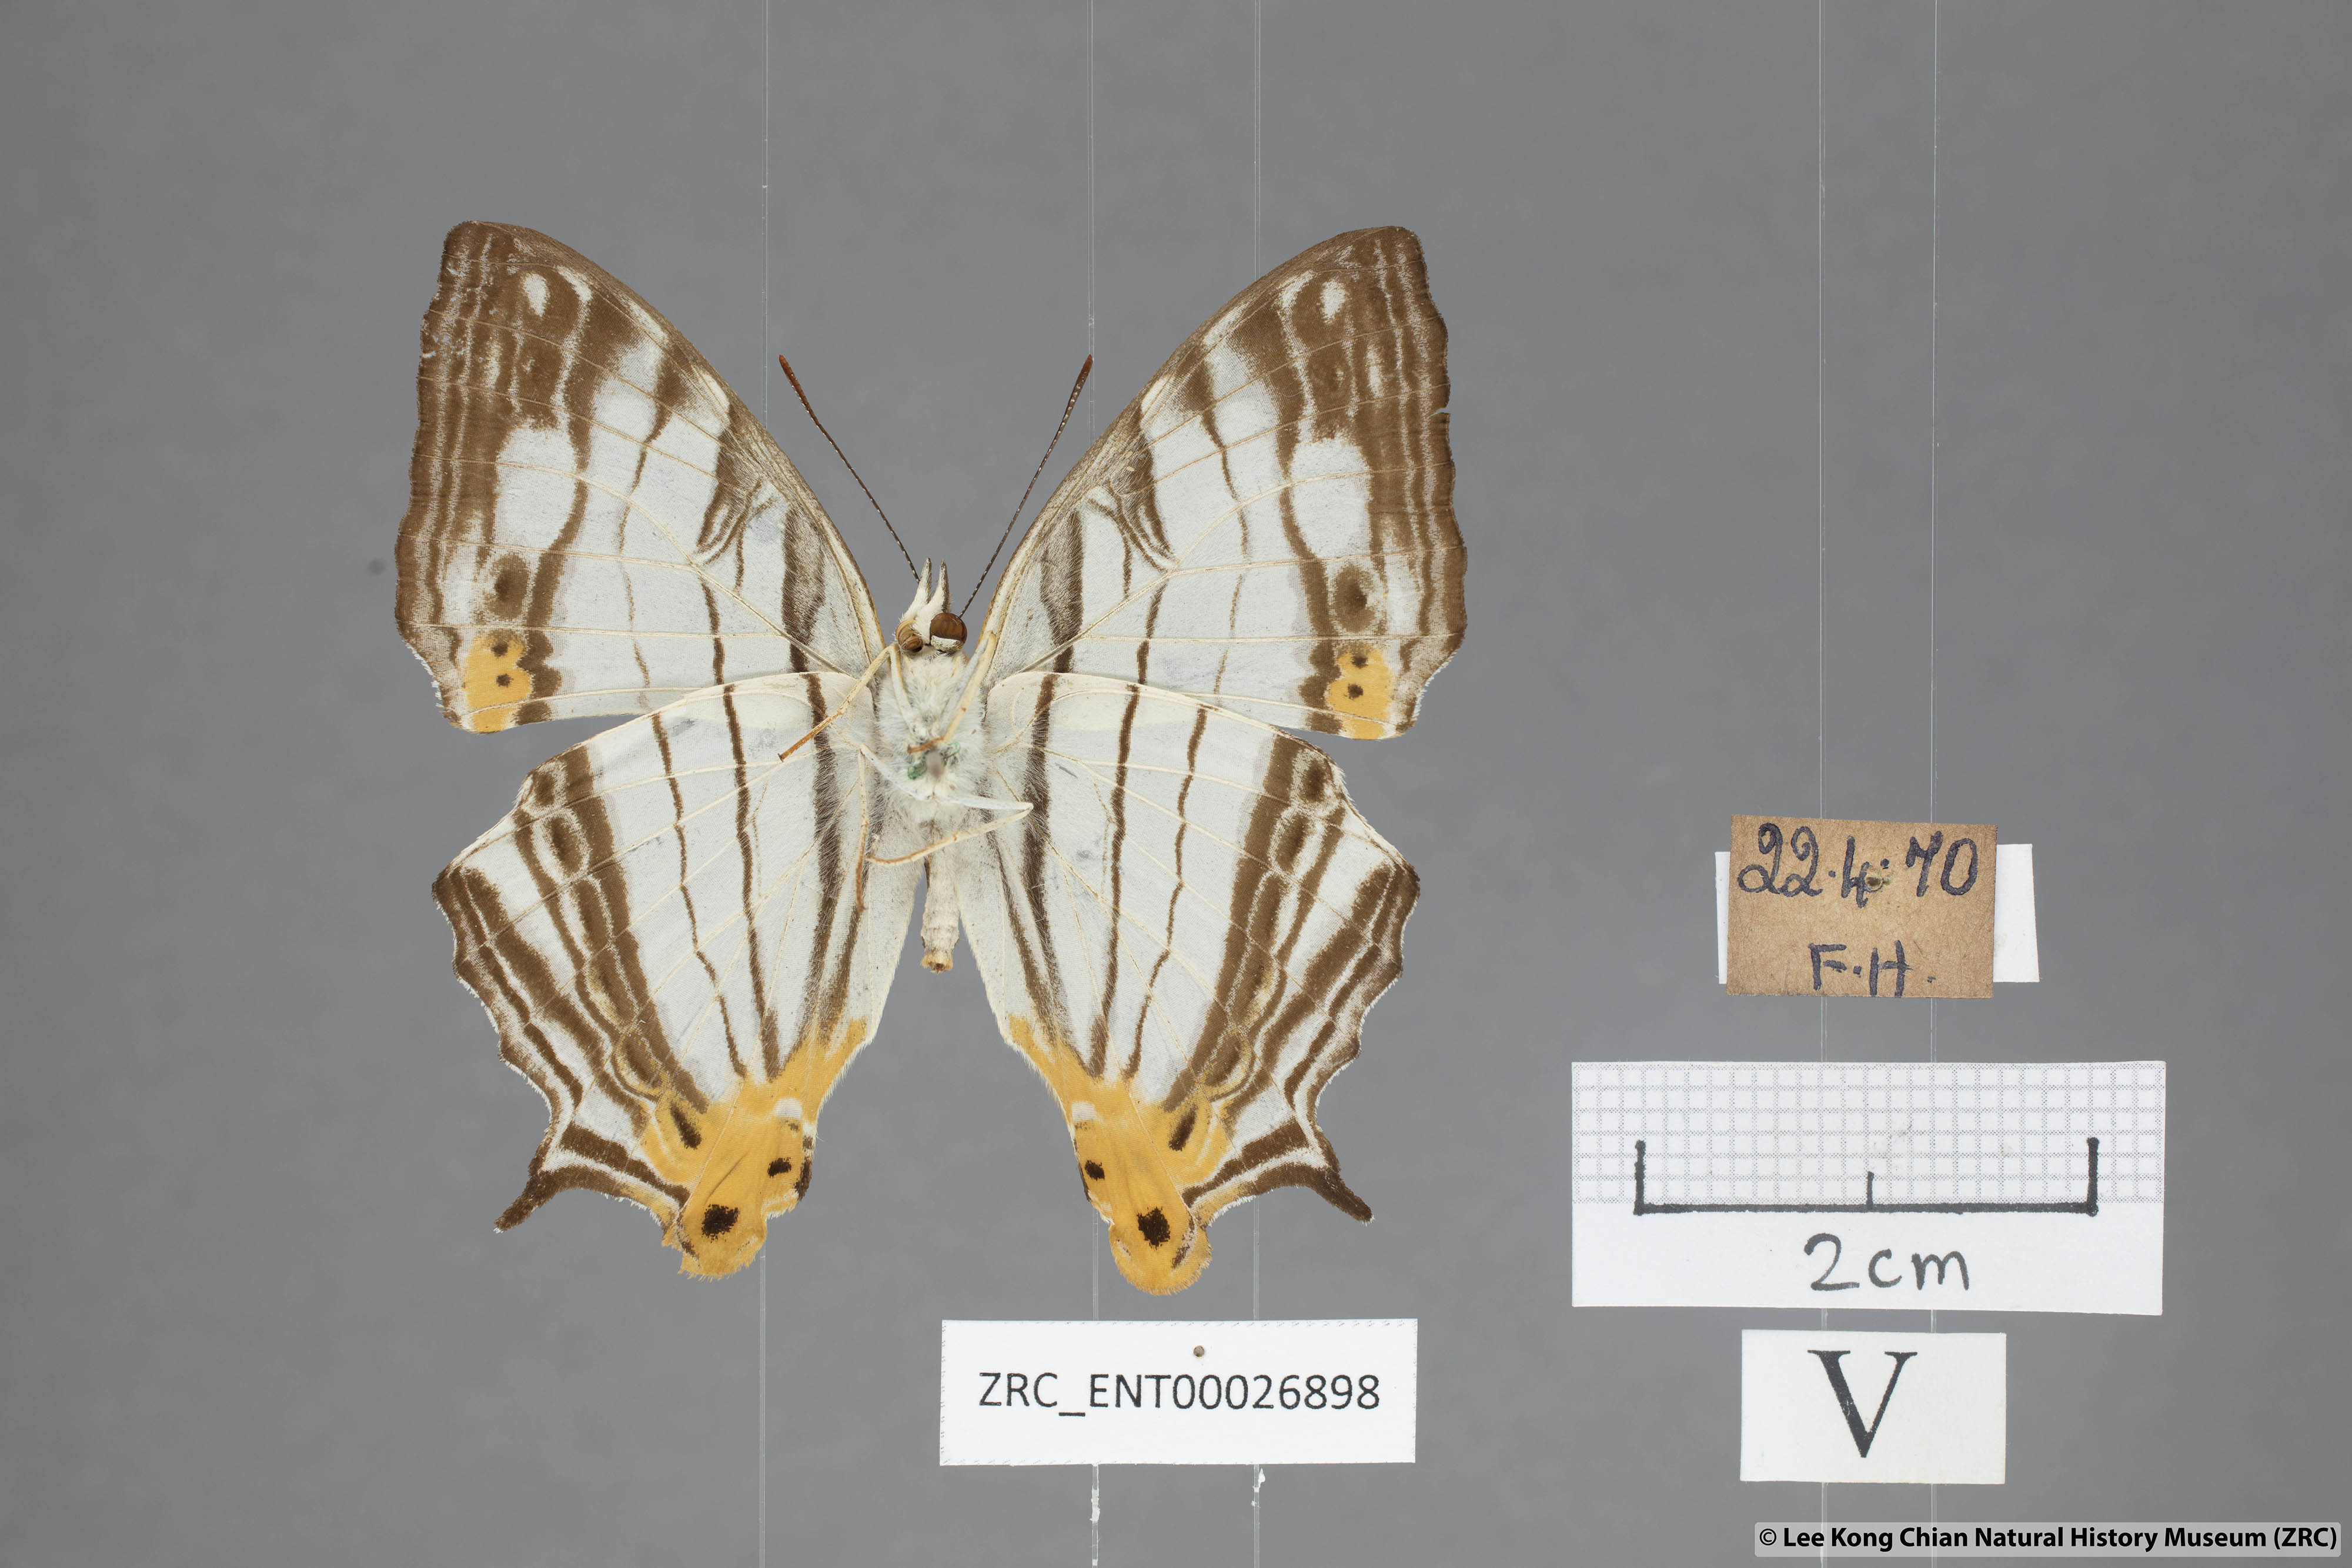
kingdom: Animalia
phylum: Arthropoda
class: Insecta
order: Lepidoptera
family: Nymphalidae
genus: Cyrestis
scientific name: Cyrestis maenalis
